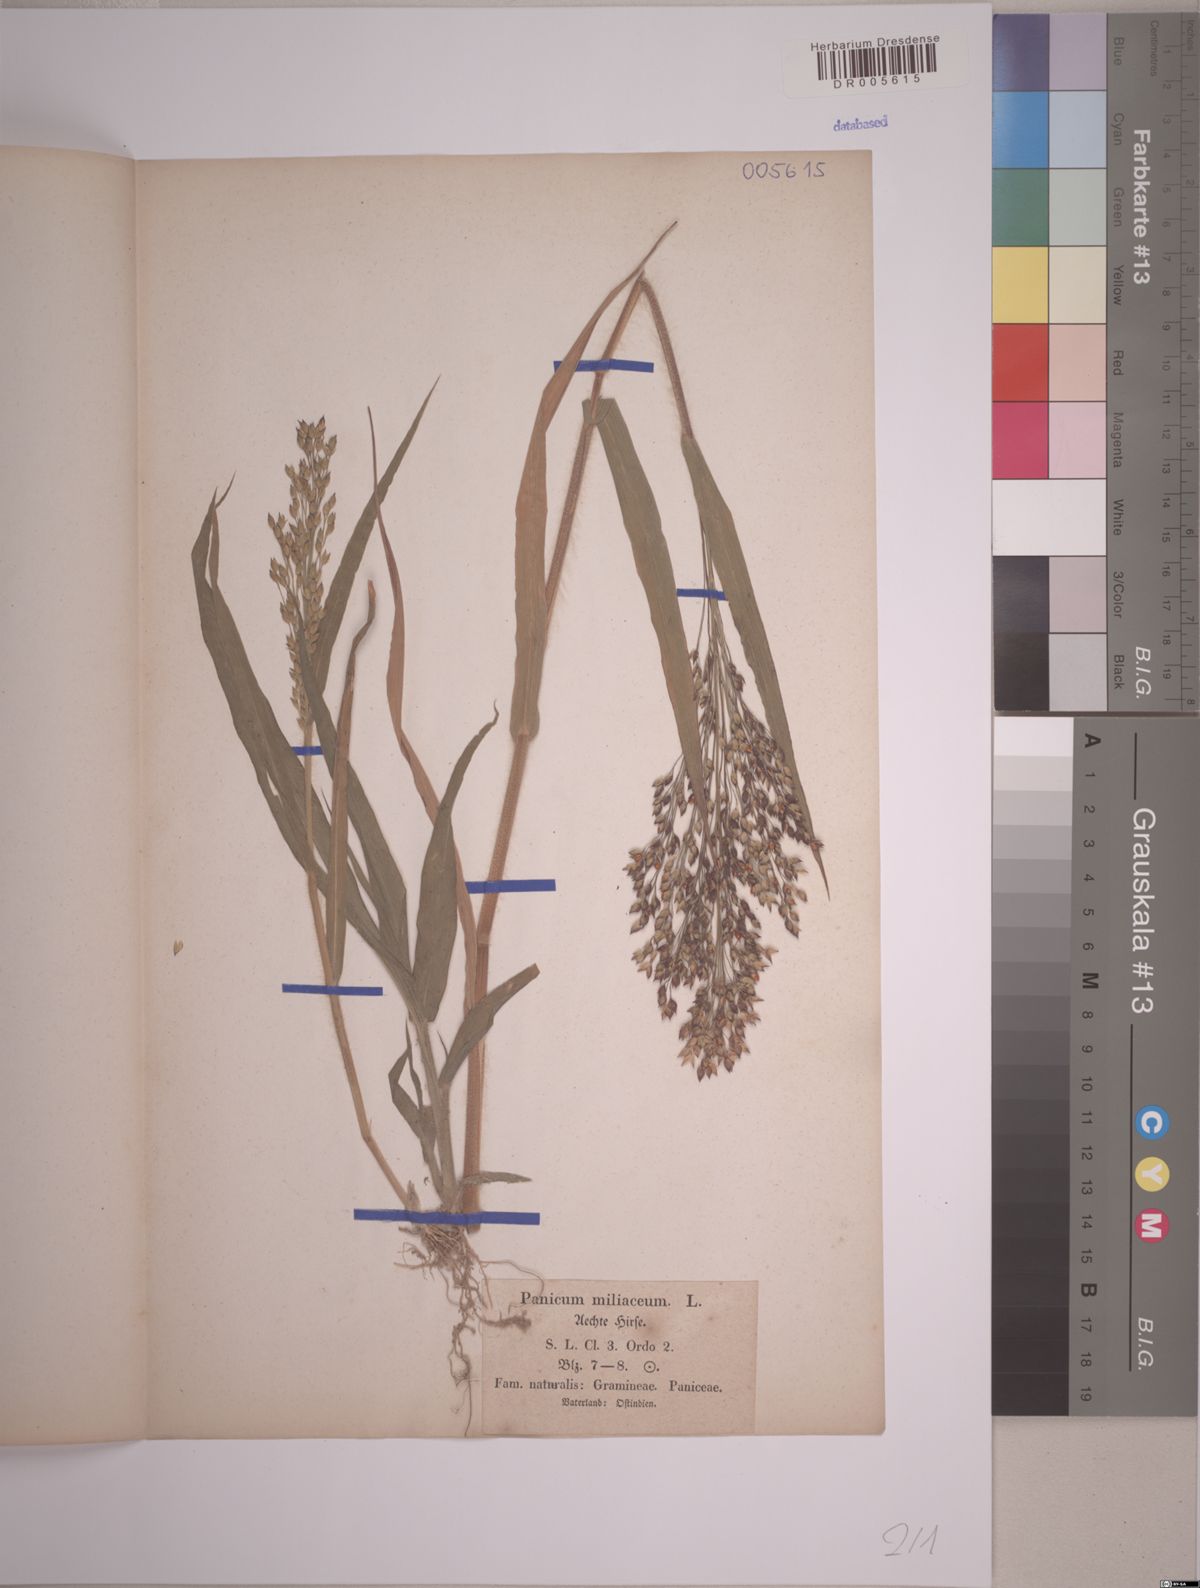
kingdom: Plantae
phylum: Tracheophyta
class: Liliopsida
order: Poales
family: Poaceae
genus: Panicum
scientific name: Panicum miliaceum
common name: Common millet
